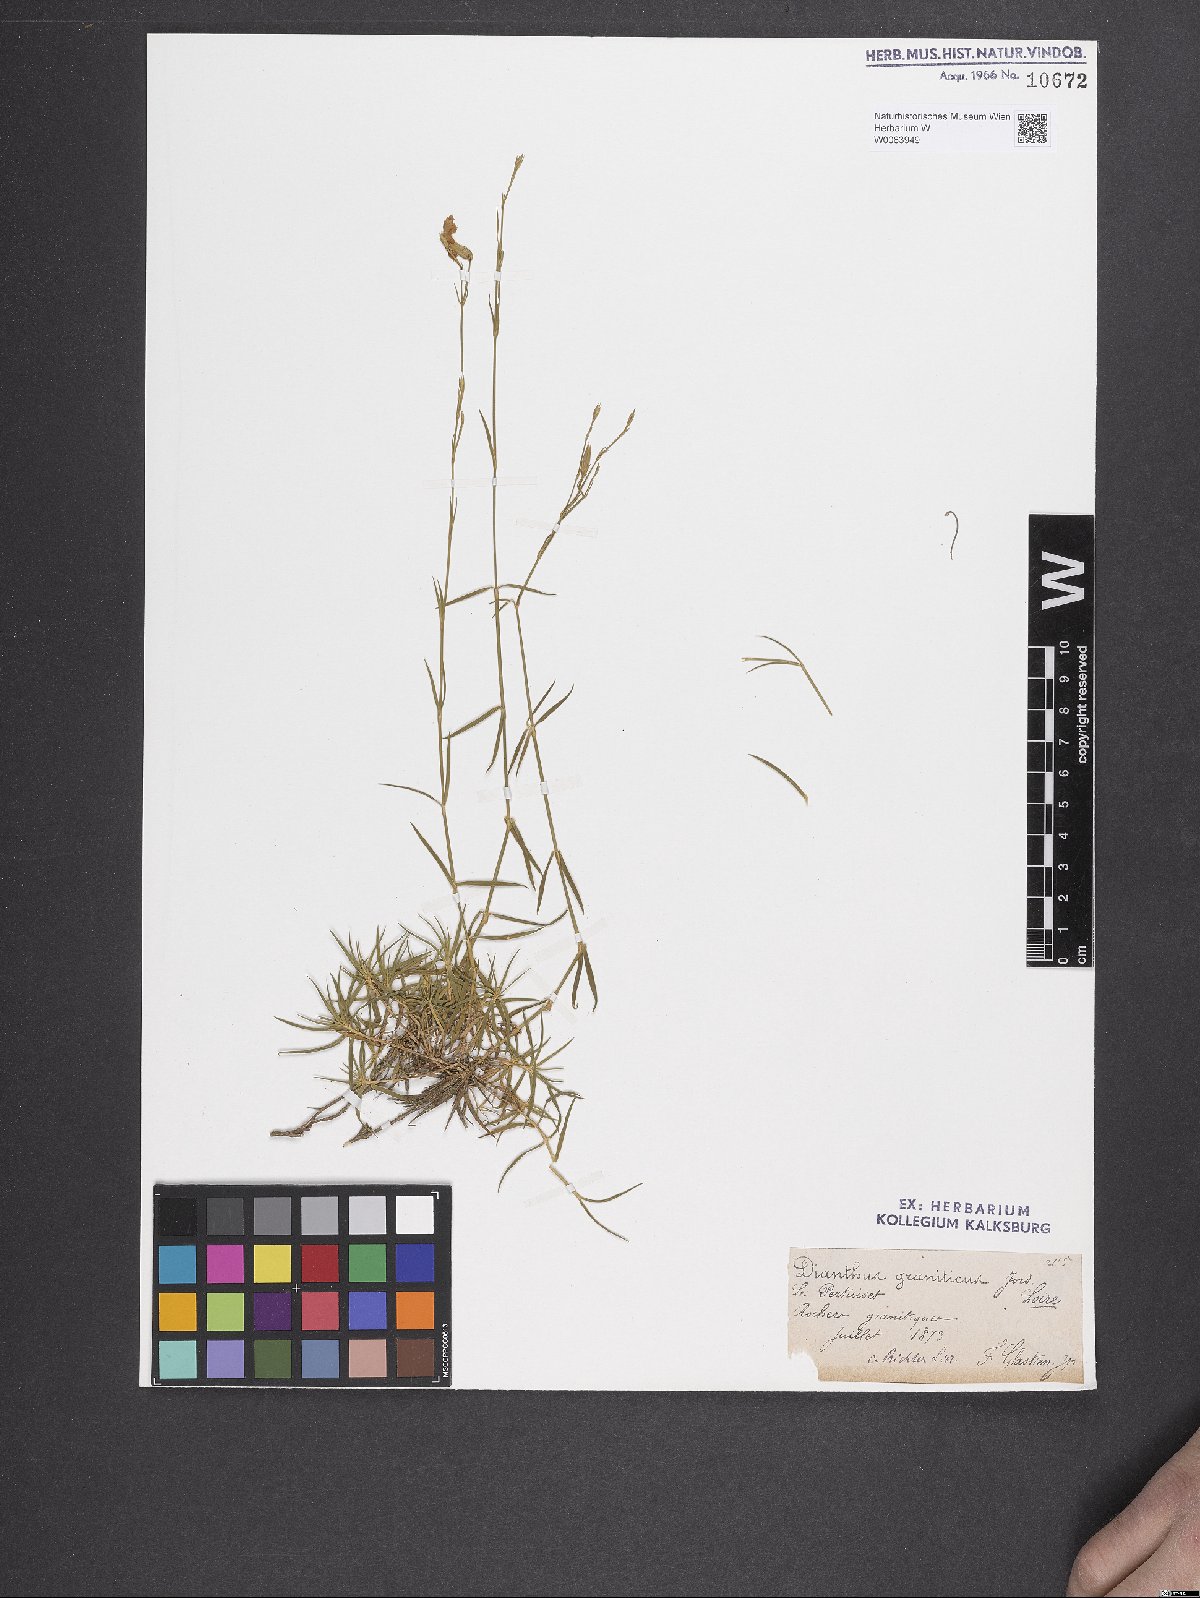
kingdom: Plantae
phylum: Tracheophyta
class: Magnoliopsida
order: Caryophyllales
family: Caryophyllaceae
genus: Dianthus
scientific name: Dianthus graniticus
